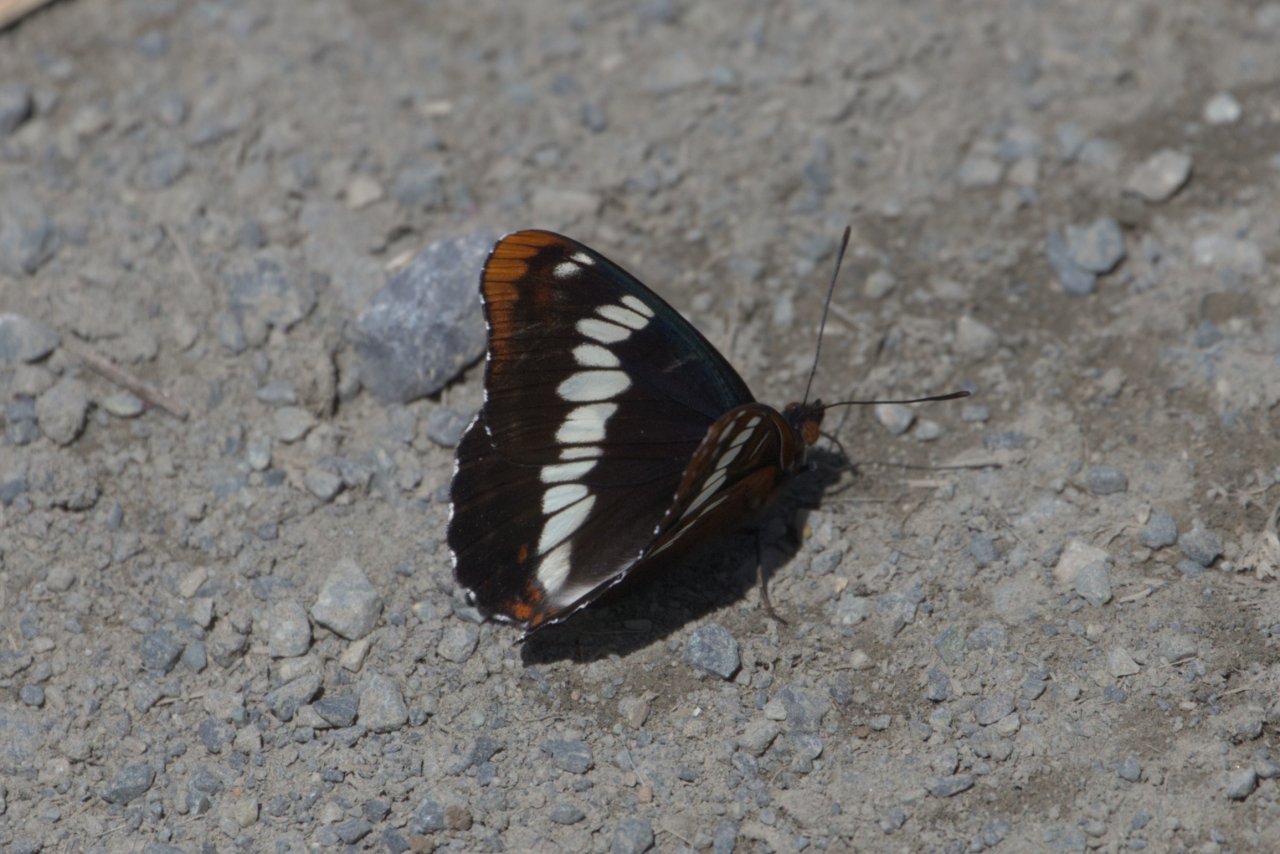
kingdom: Animalia
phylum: Arthropoda
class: Insecta
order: Lepidoptera
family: Nymphalidae
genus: Limenitis
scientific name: Limenitis lorquini
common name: Lorquin's Admiral
